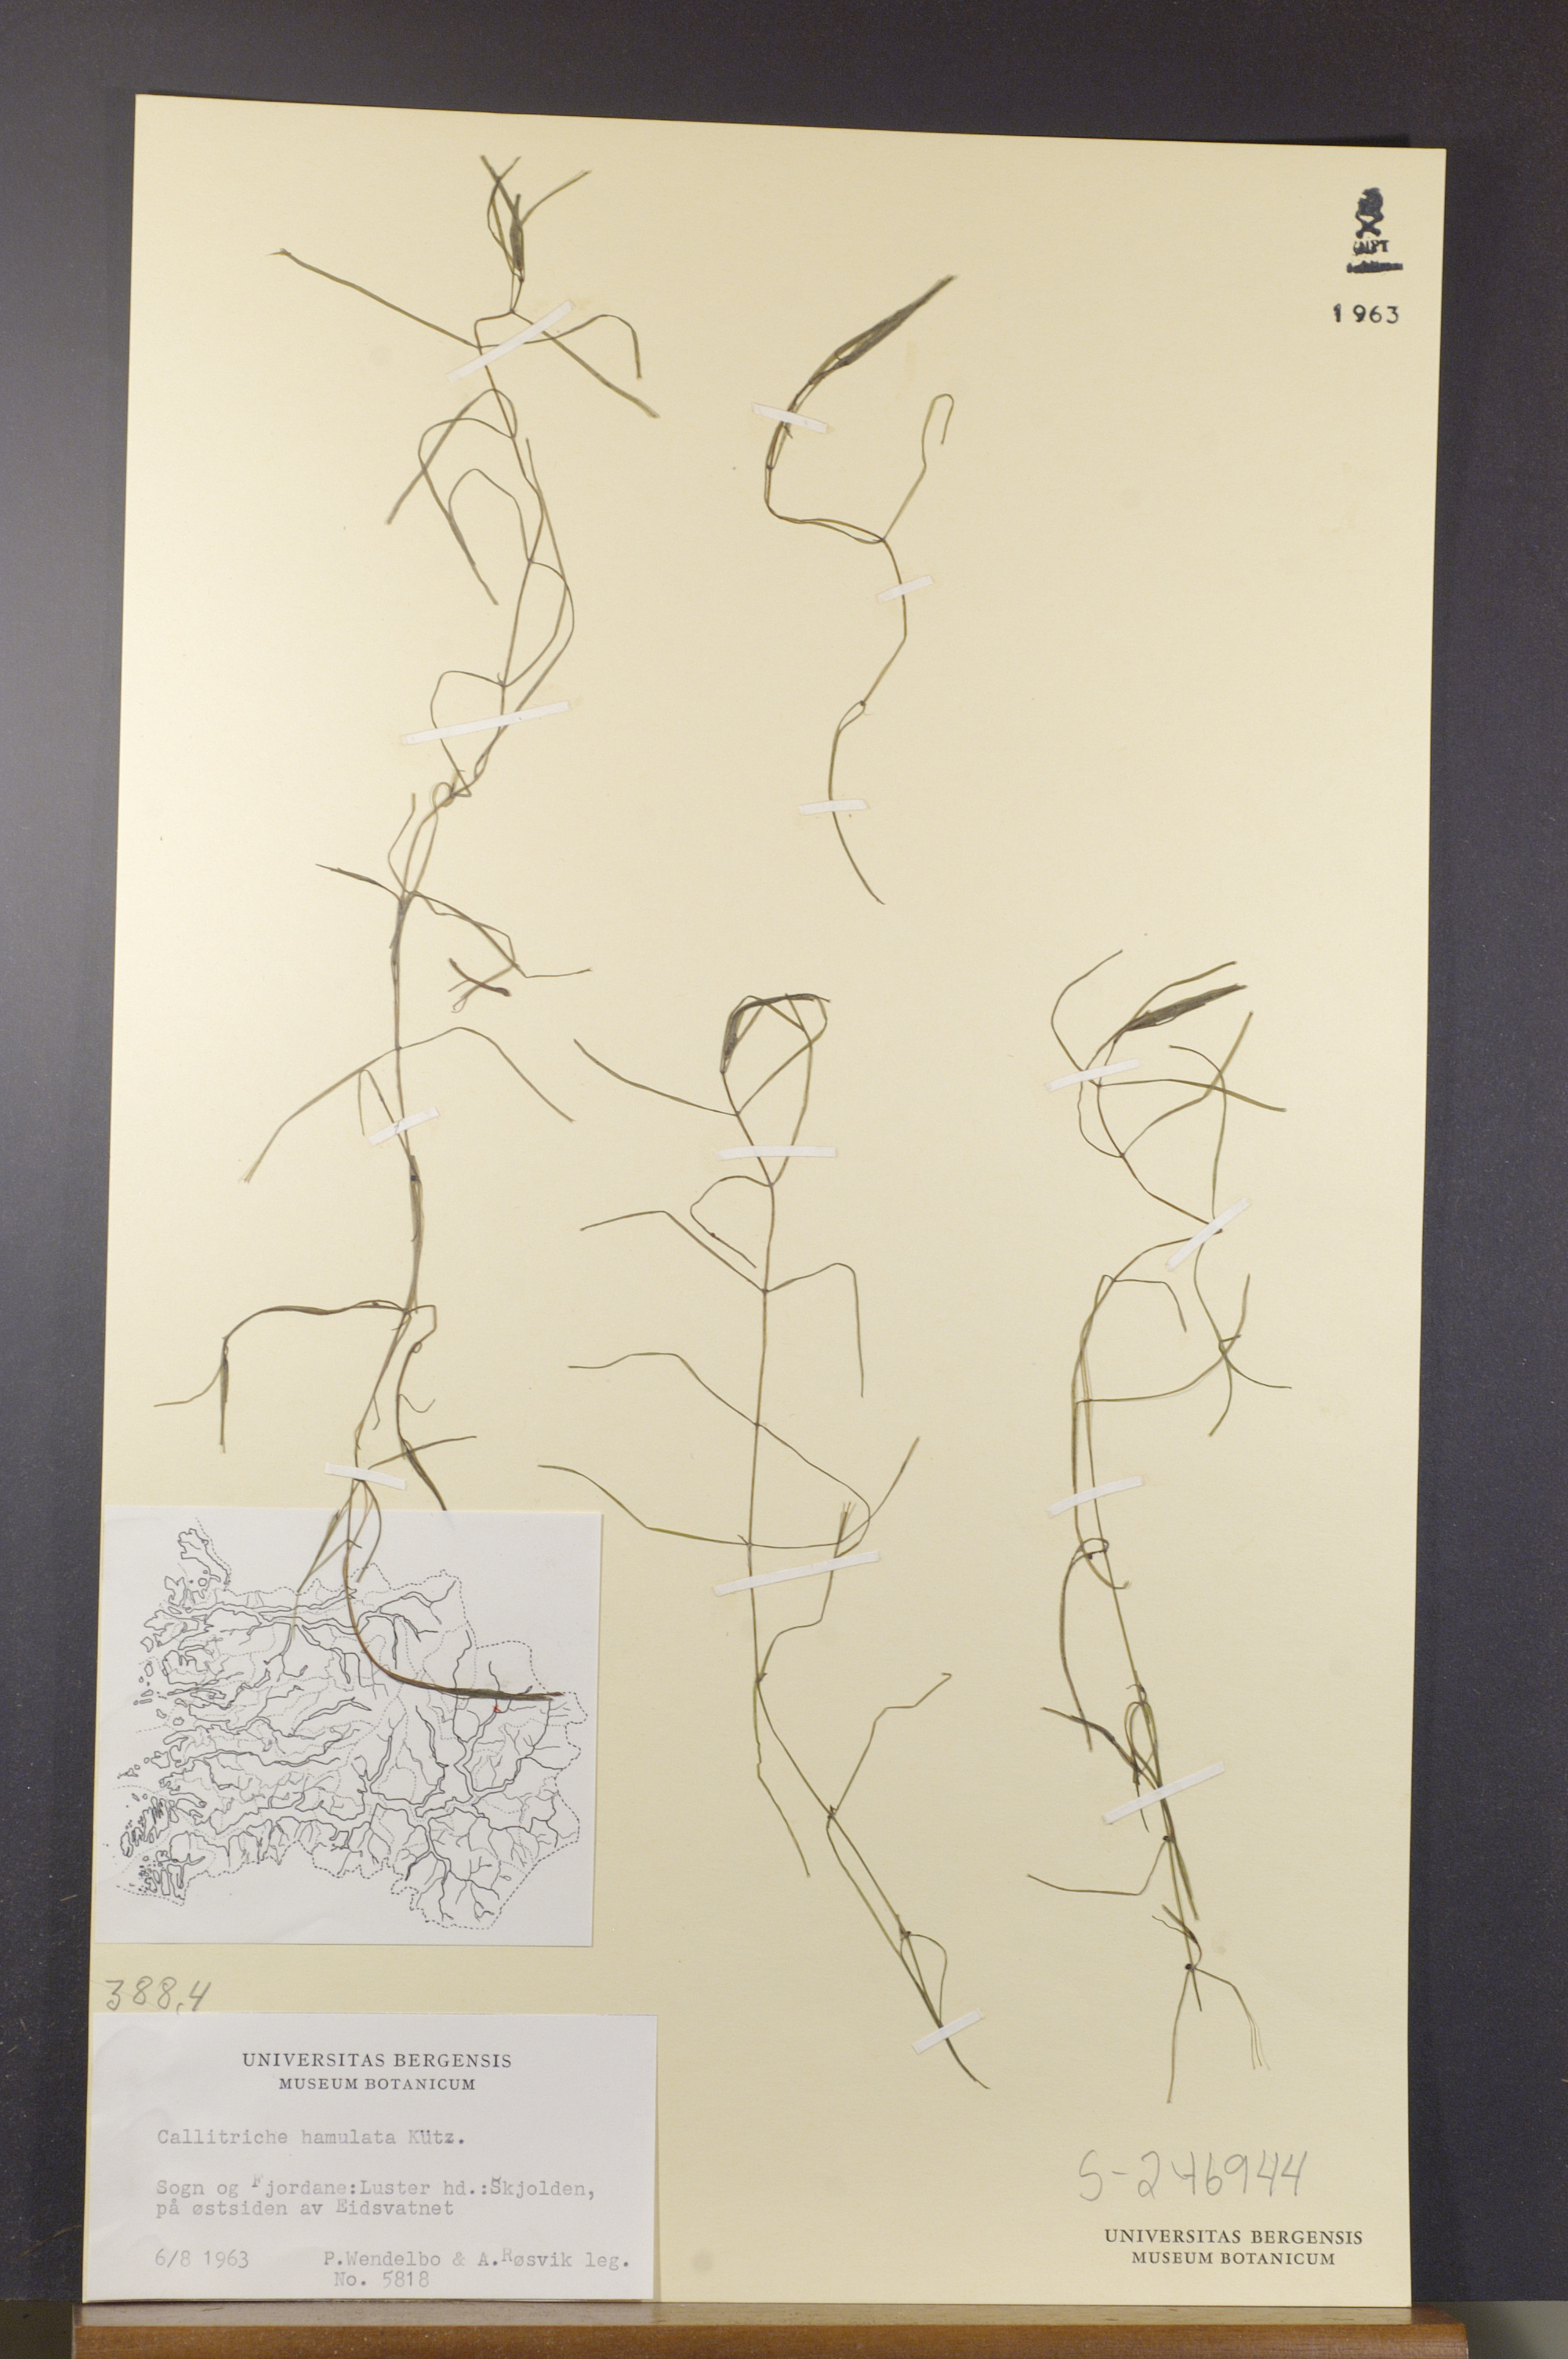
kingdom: Plantae
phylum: Tracheophyta
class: Magnoliopsida
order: Lamiales
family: Plantaginaceae
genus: Callitriche
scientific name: Callitriche hamulata
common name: Intermediate water-starwort
